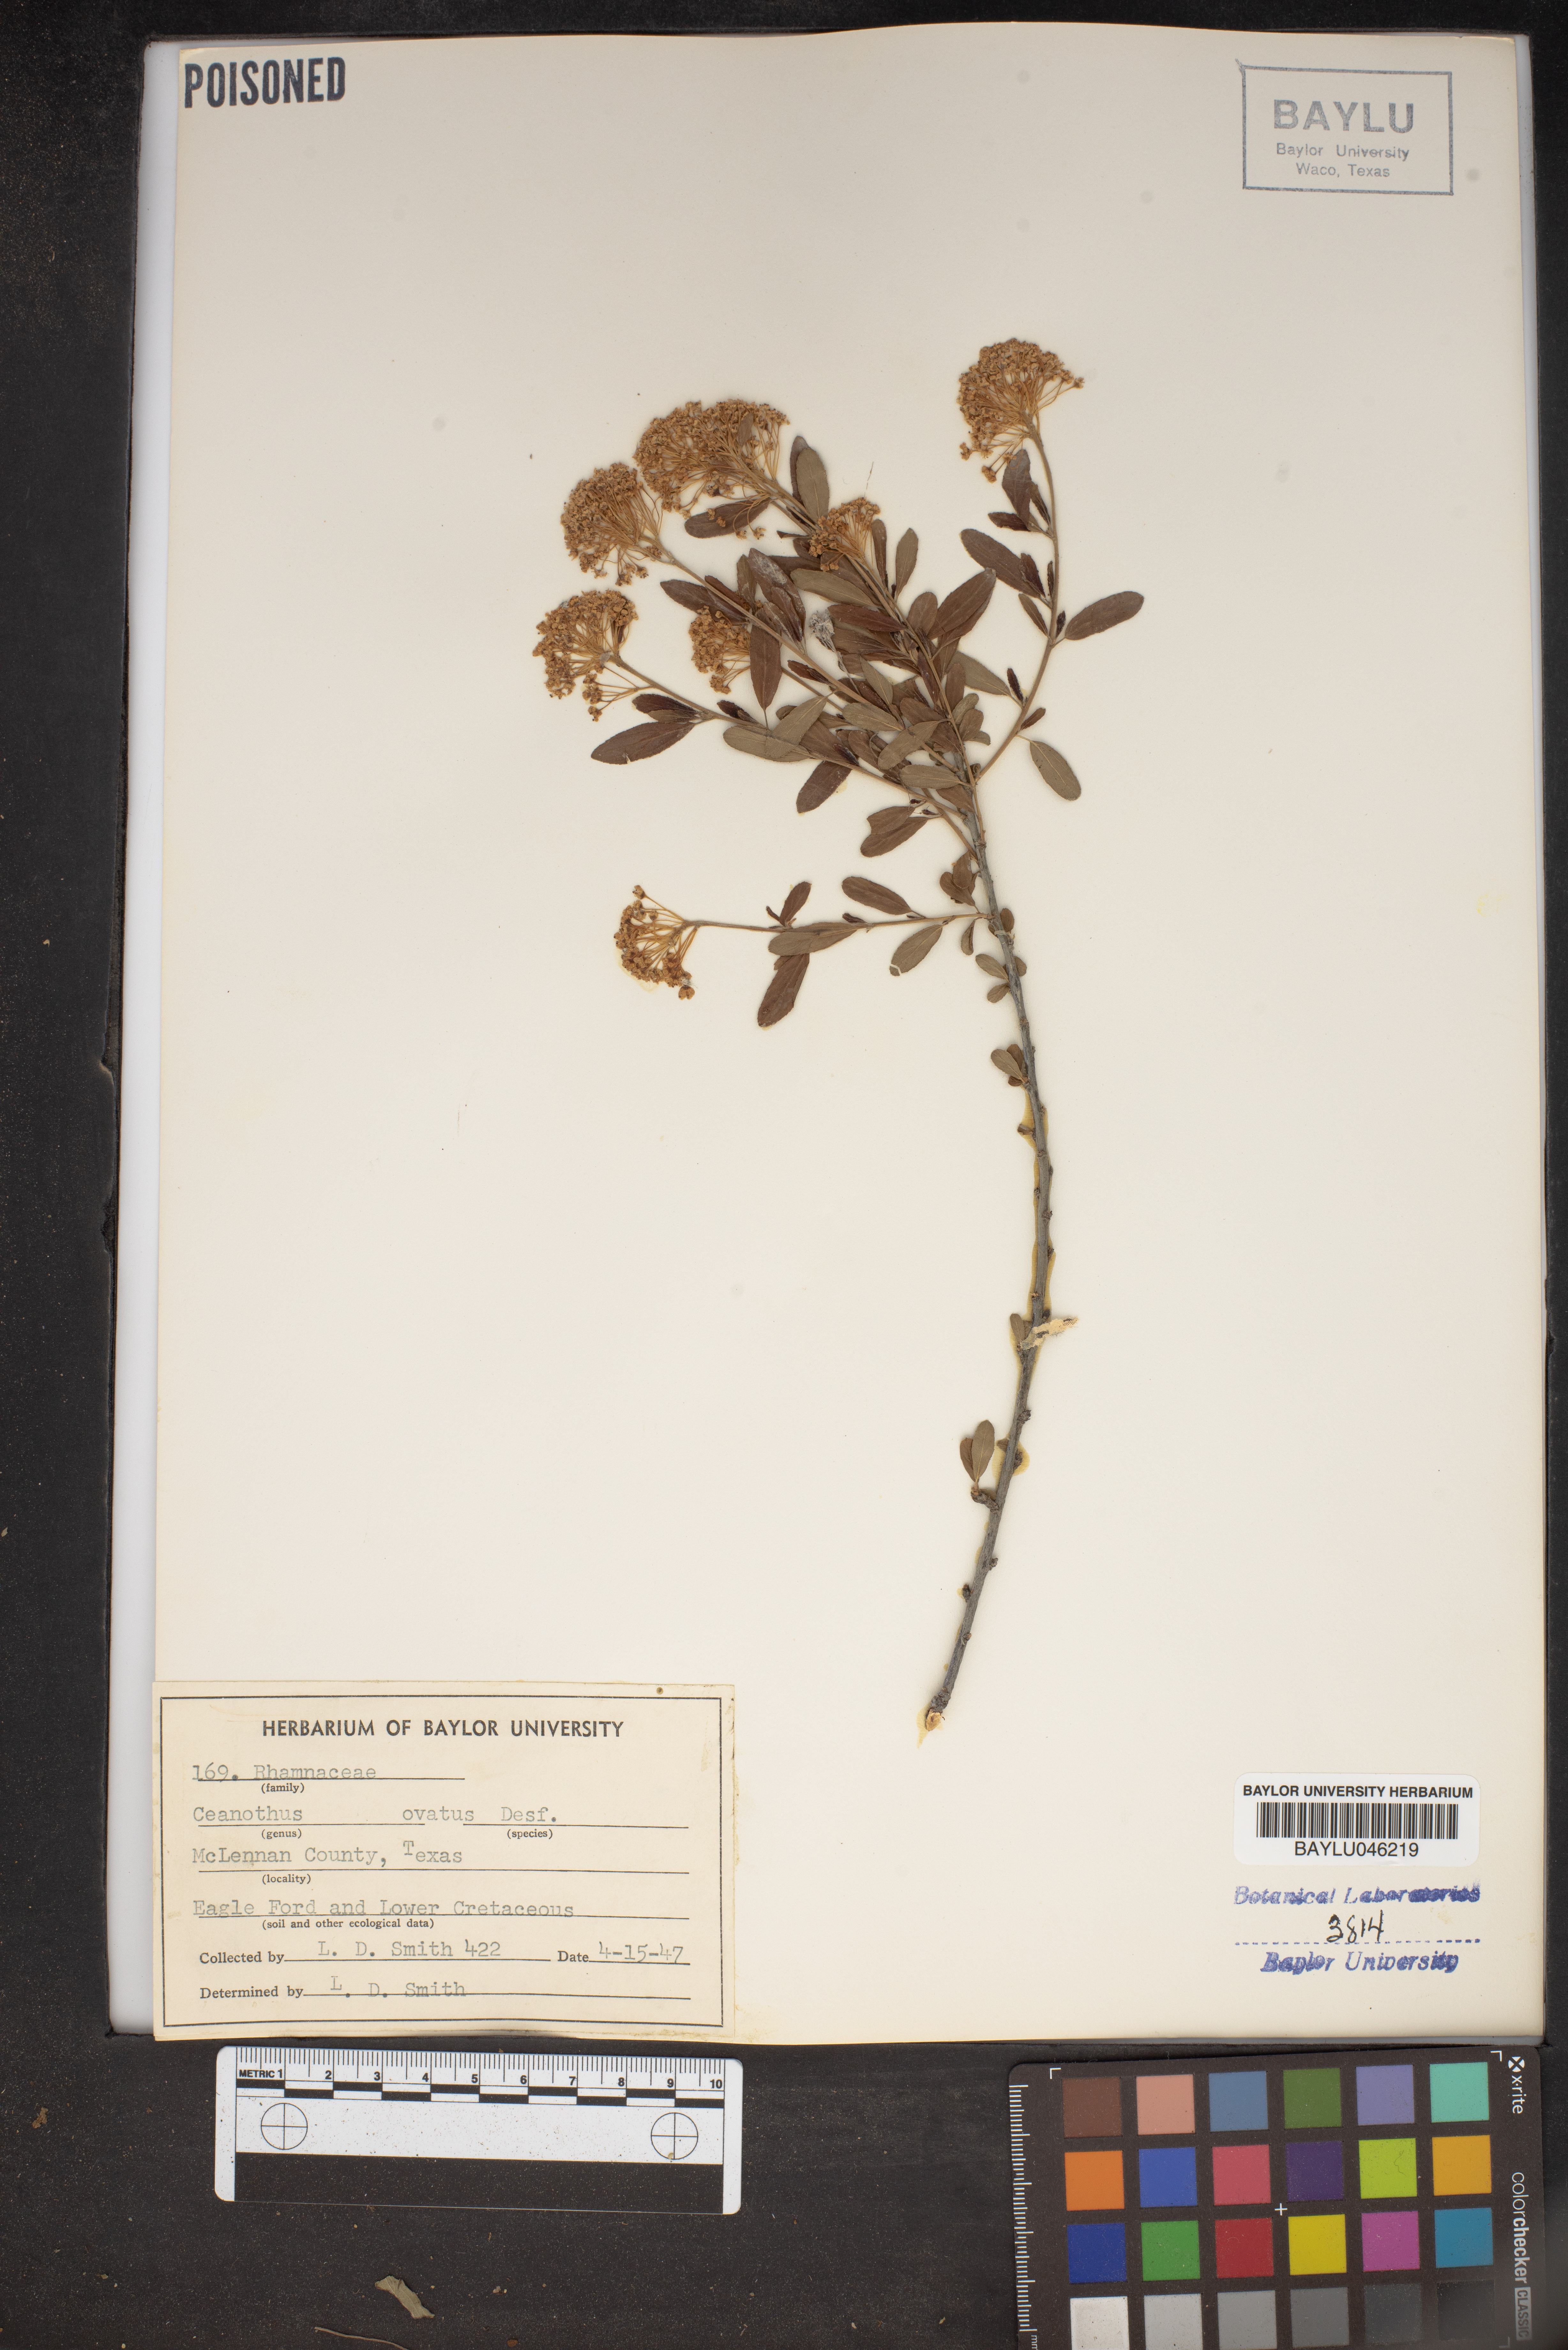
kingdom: Plantae
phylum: Tracheophyta
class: Magnoliopsida
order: Rosales
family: Rhamnaceae
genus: Ceanothus
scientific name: Ceanothus herbaceus
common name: Inland ceanothus
